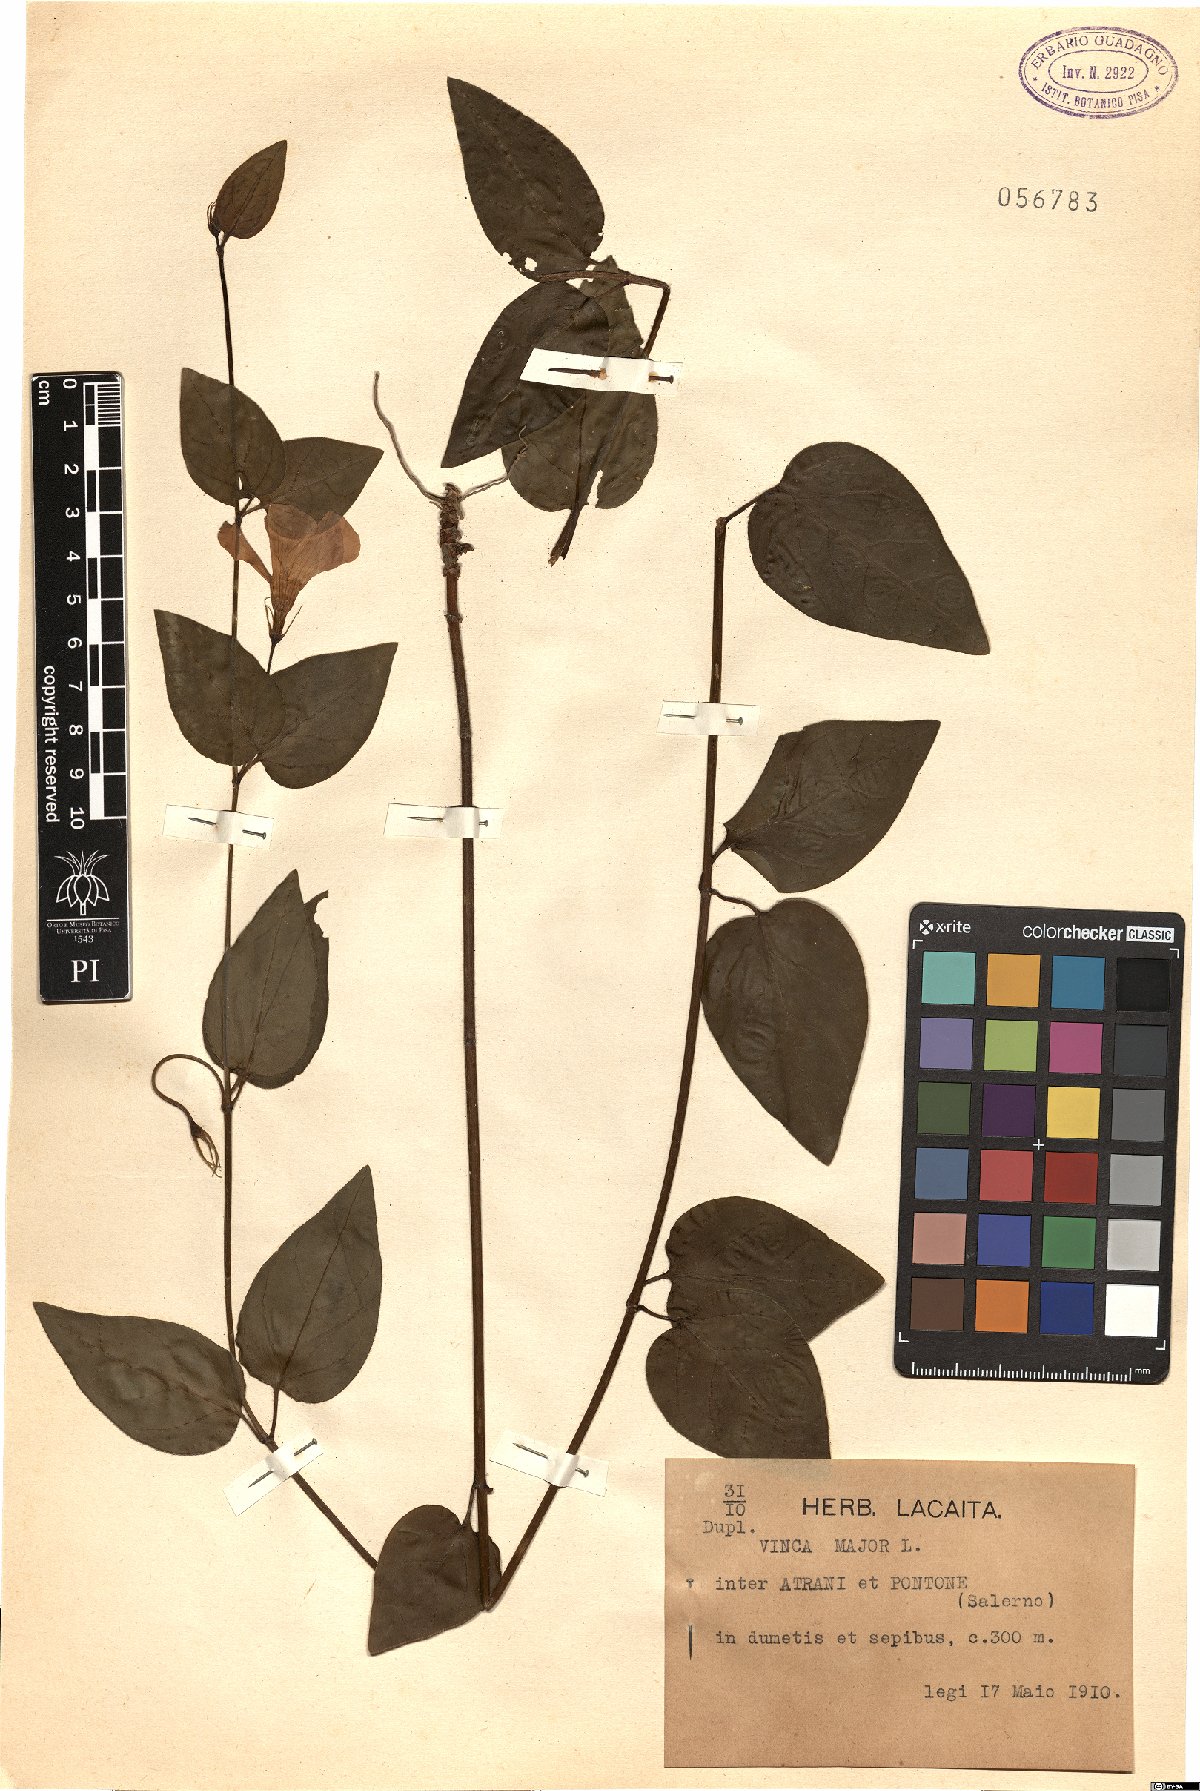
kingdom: Plantae
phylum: Tracheophyta
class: Magnoliopsida
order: Gentianales
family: Apocynaceae
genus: Vinca
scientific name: Vinca major
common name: Greater periwinkle
